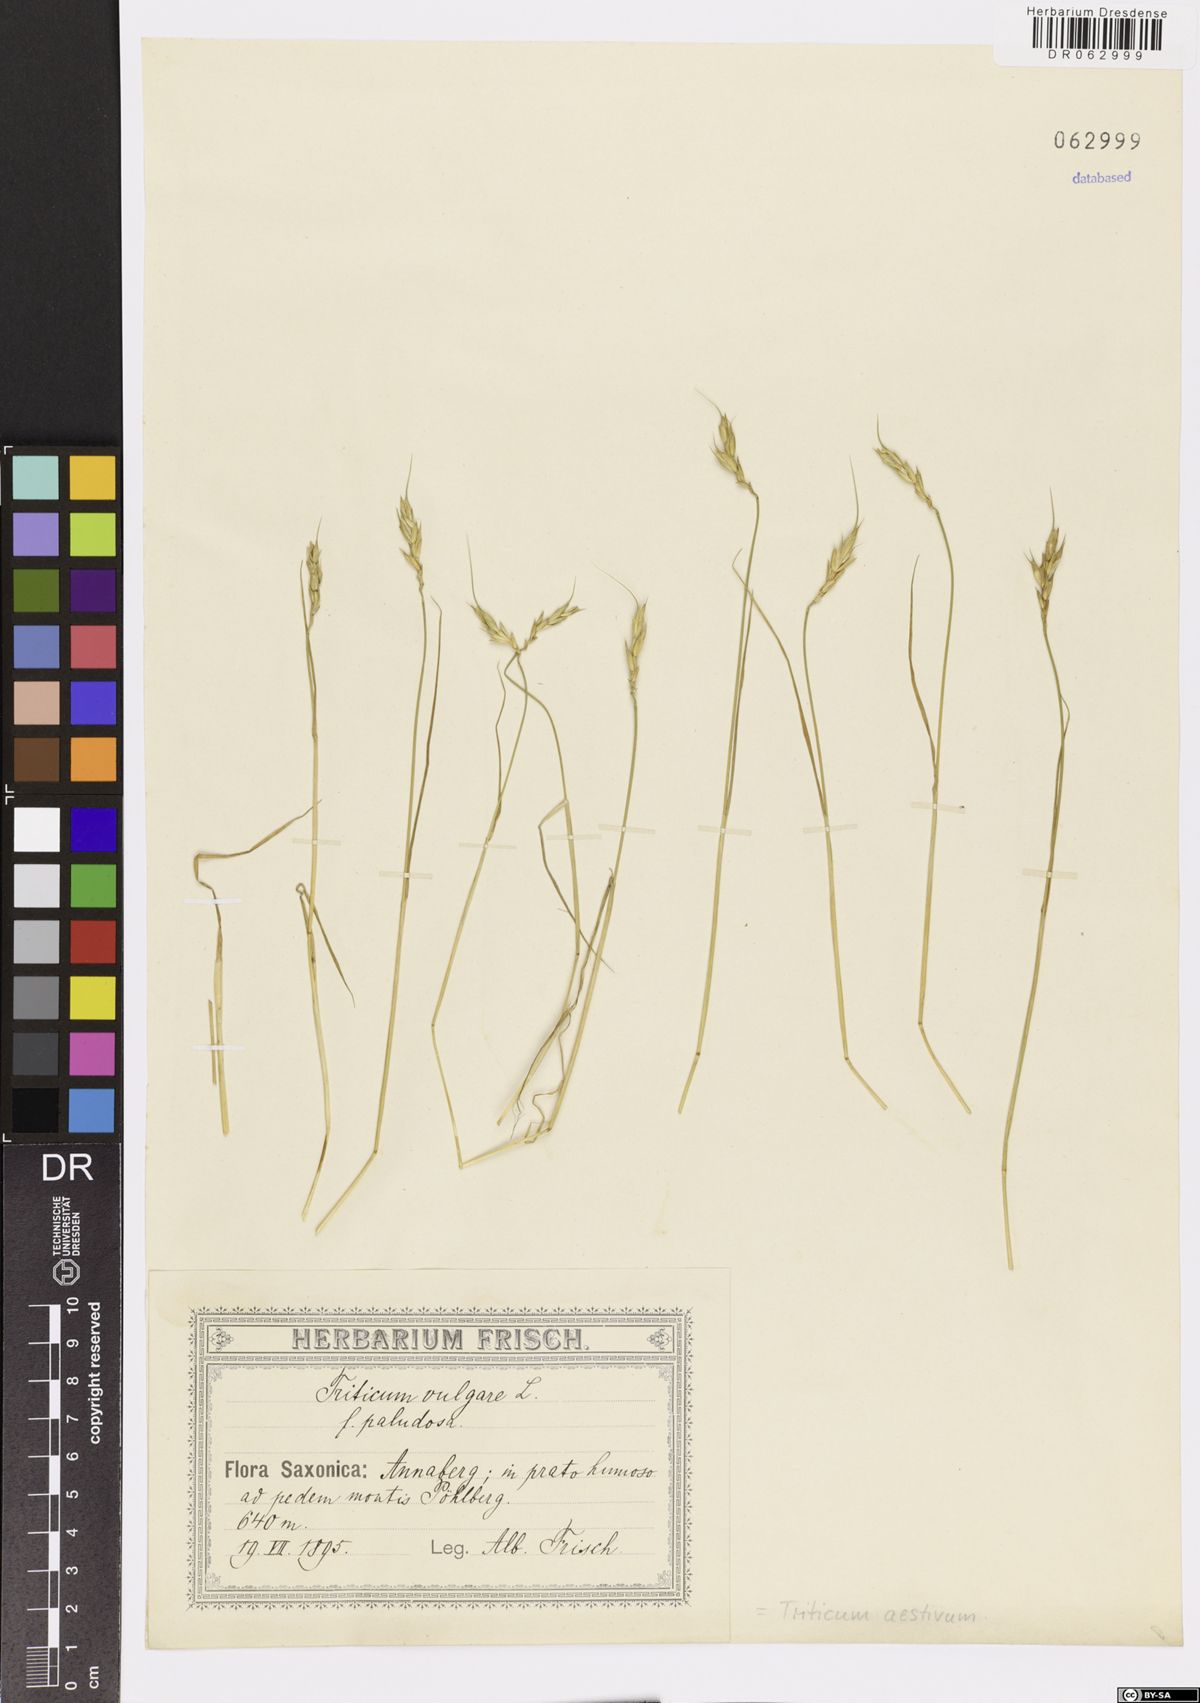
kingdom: Plantae
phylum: Tracheophyta
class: Liliopsida
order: Poales
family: Poaceae
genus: Triticum
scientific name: Triticum aestivum
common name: Common wheat
